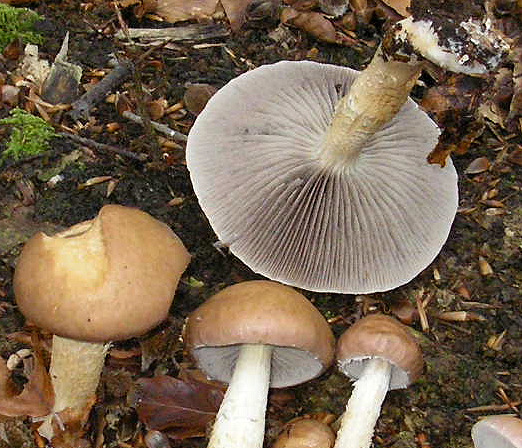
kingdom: Fungi
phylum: Basidiomycota
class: Agaricomycetes
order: Agaricales
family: Strophariaceae
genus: Stropharia
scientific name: Stropharia hornemannii
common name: nordisk bredblad
